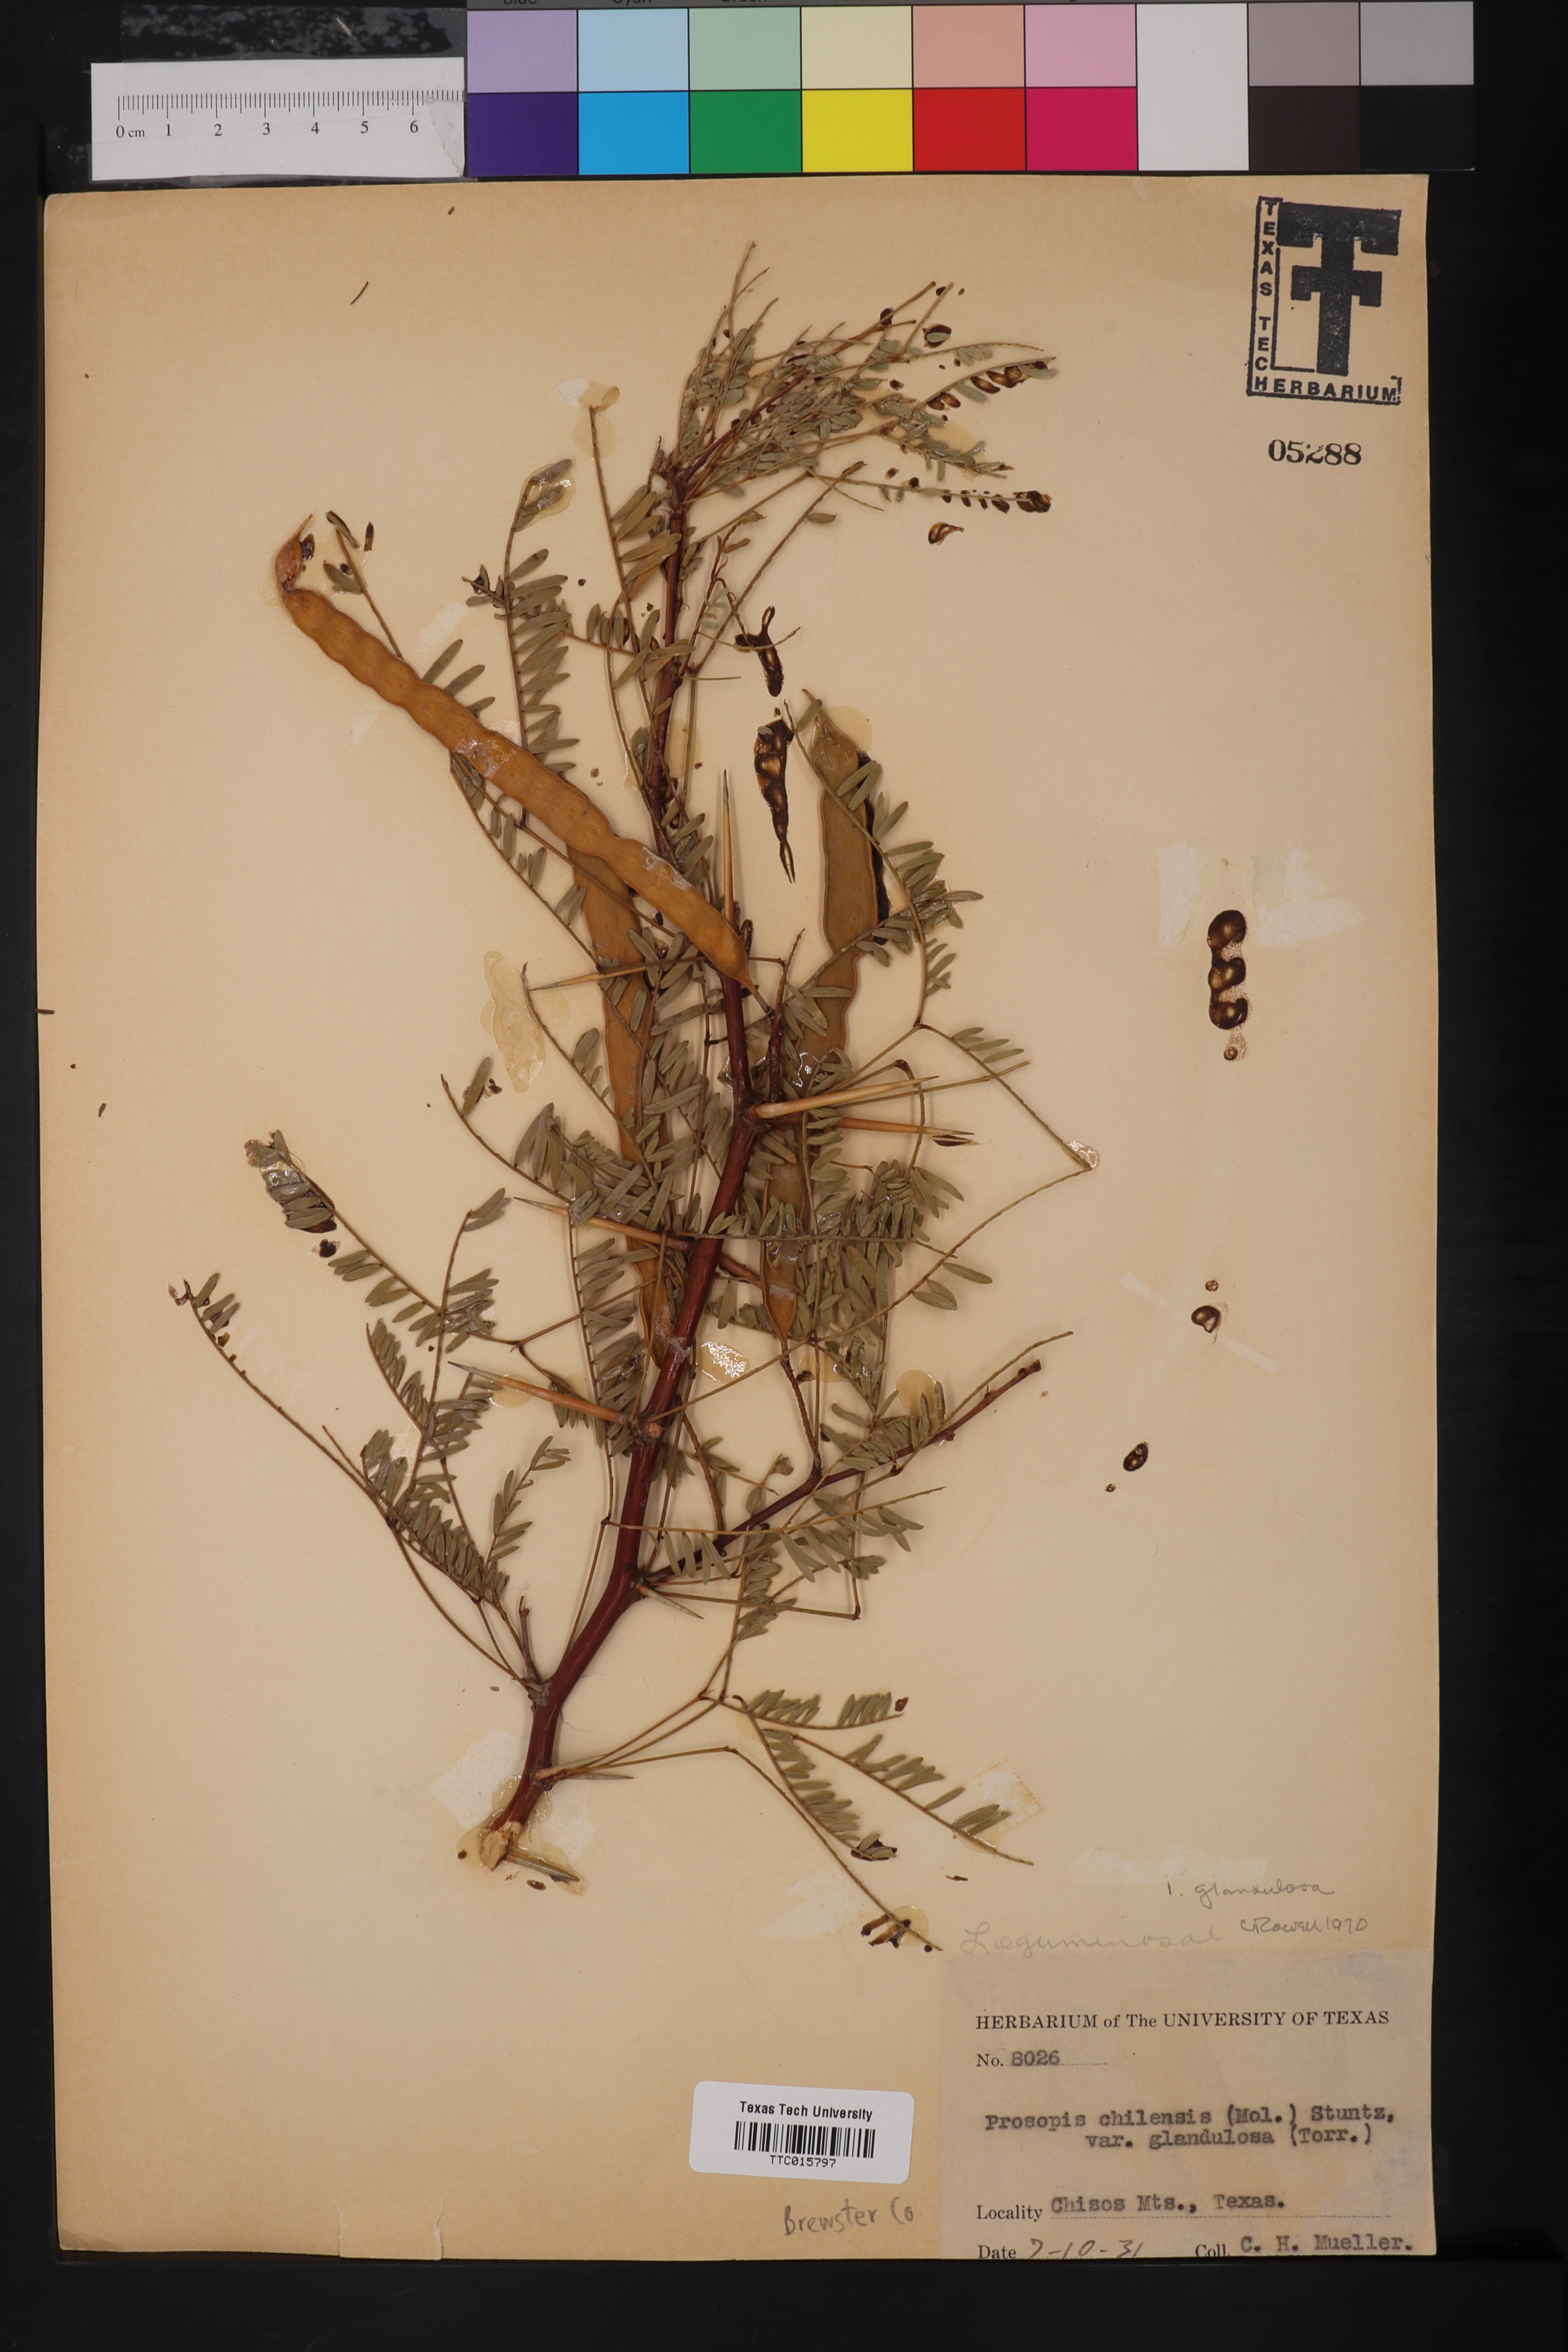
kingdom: Plantae
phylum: Tracheophyta
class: Magnoliopsida
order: Fabales
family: Fabaceae
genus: Prosopis
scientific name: Prosopis glandulosa
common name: Honey mesquite
